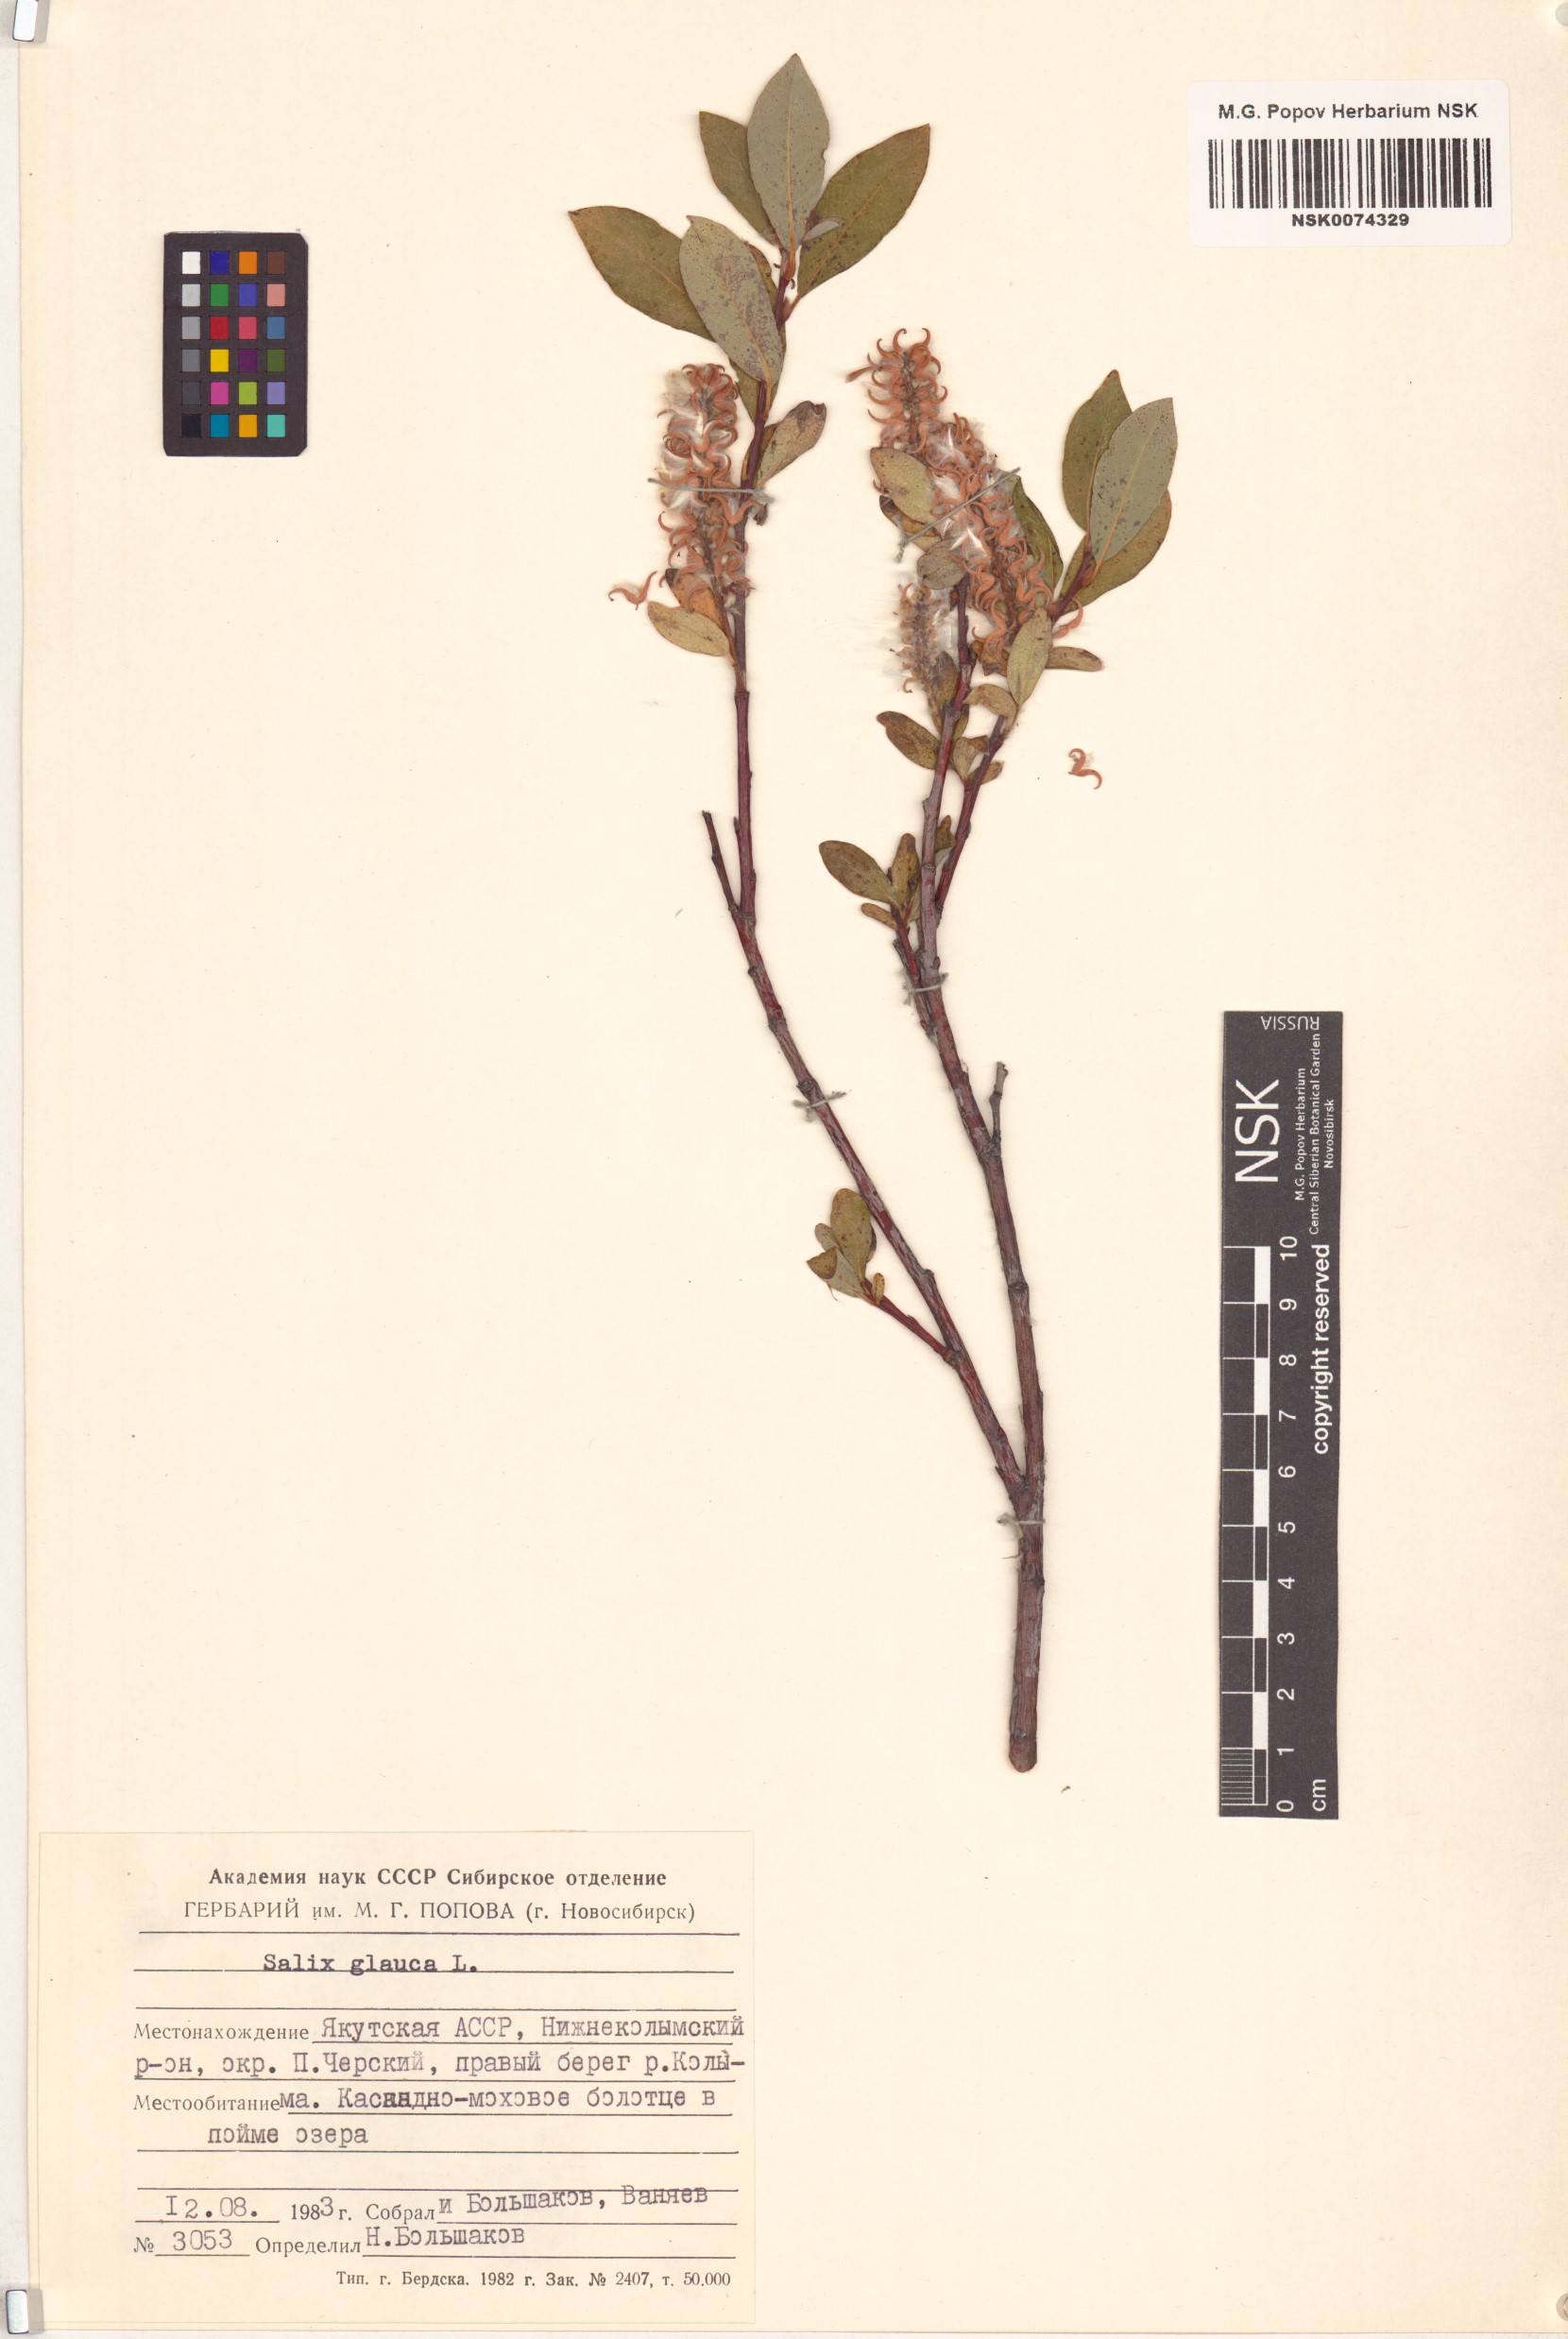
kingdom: Plantae
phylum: Tracheophyta
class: Magnoliopsida
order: Malpighiales
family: Salicaceae
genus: Salix
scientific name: Salix glauca
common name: Glaucous willow
